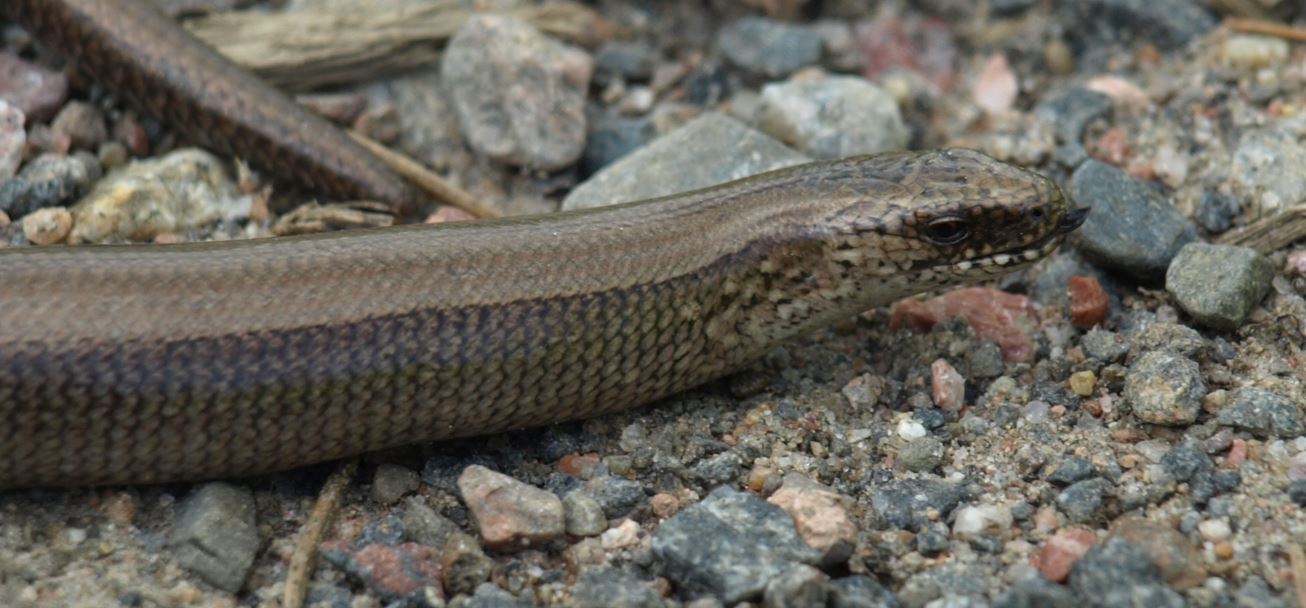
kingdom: Animalia
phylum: Chordata
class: Squamata
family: Anguidae
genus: Anguis
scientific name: Anguis colchica
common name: Slow worm
